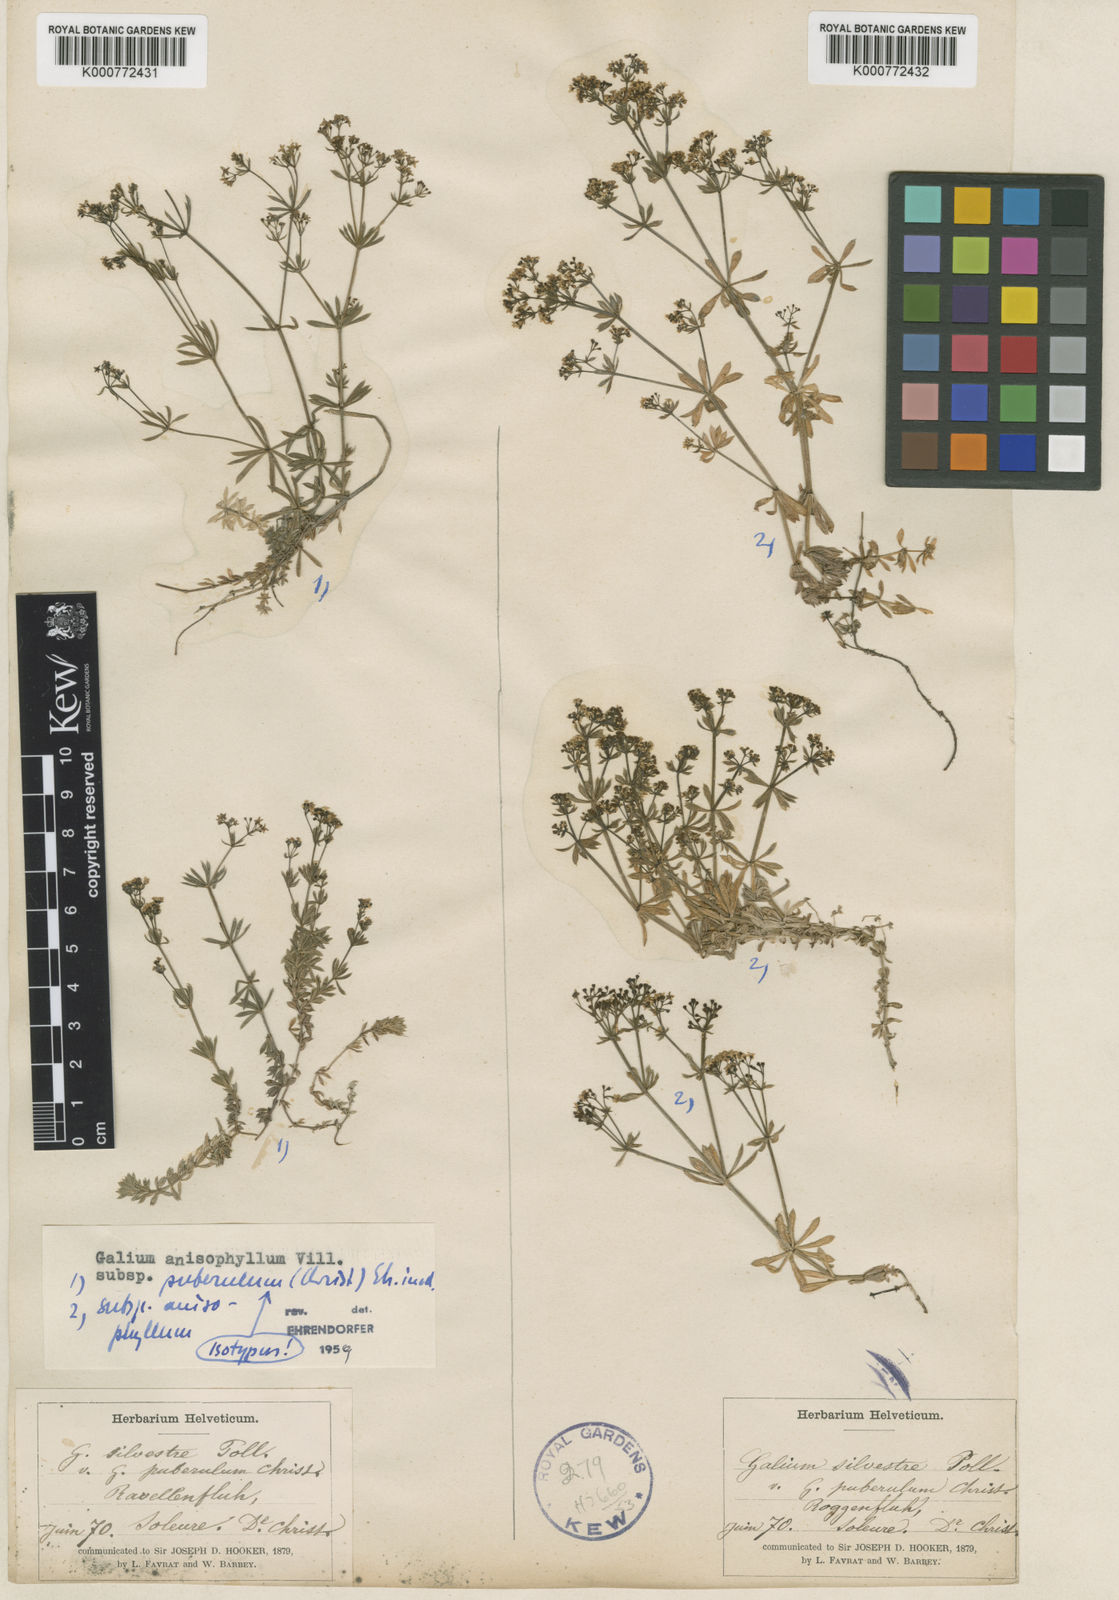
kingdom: Plantae
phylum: Tracheophyta
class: Magnoliopsida
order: Gentianales
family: Rubiaceae
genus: Galium
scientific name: Galium anisophyllon
